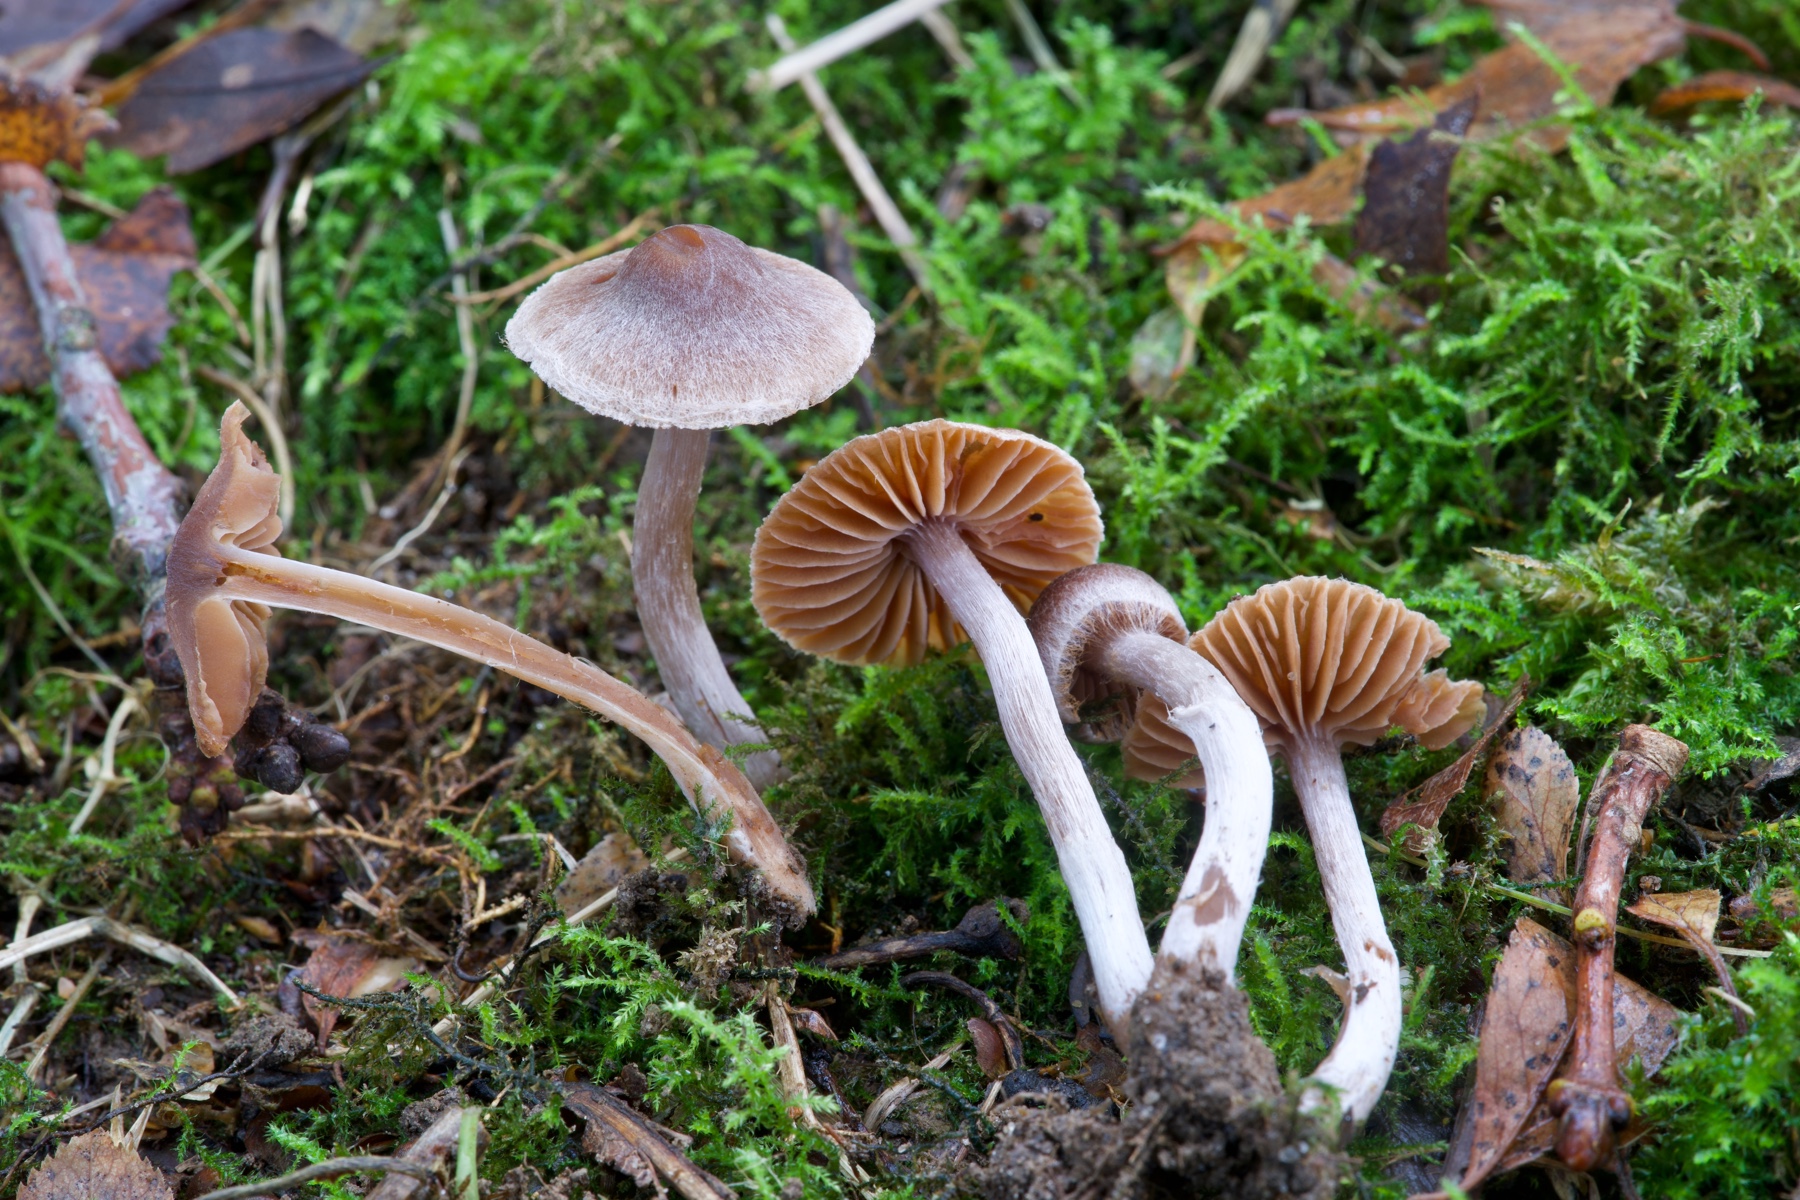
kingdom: Fungi
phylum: Basidiomycota
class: Agaricomycetes
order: Agaricales
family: Cortinariaceae
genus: Cortinarius
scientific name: Cortinarius
